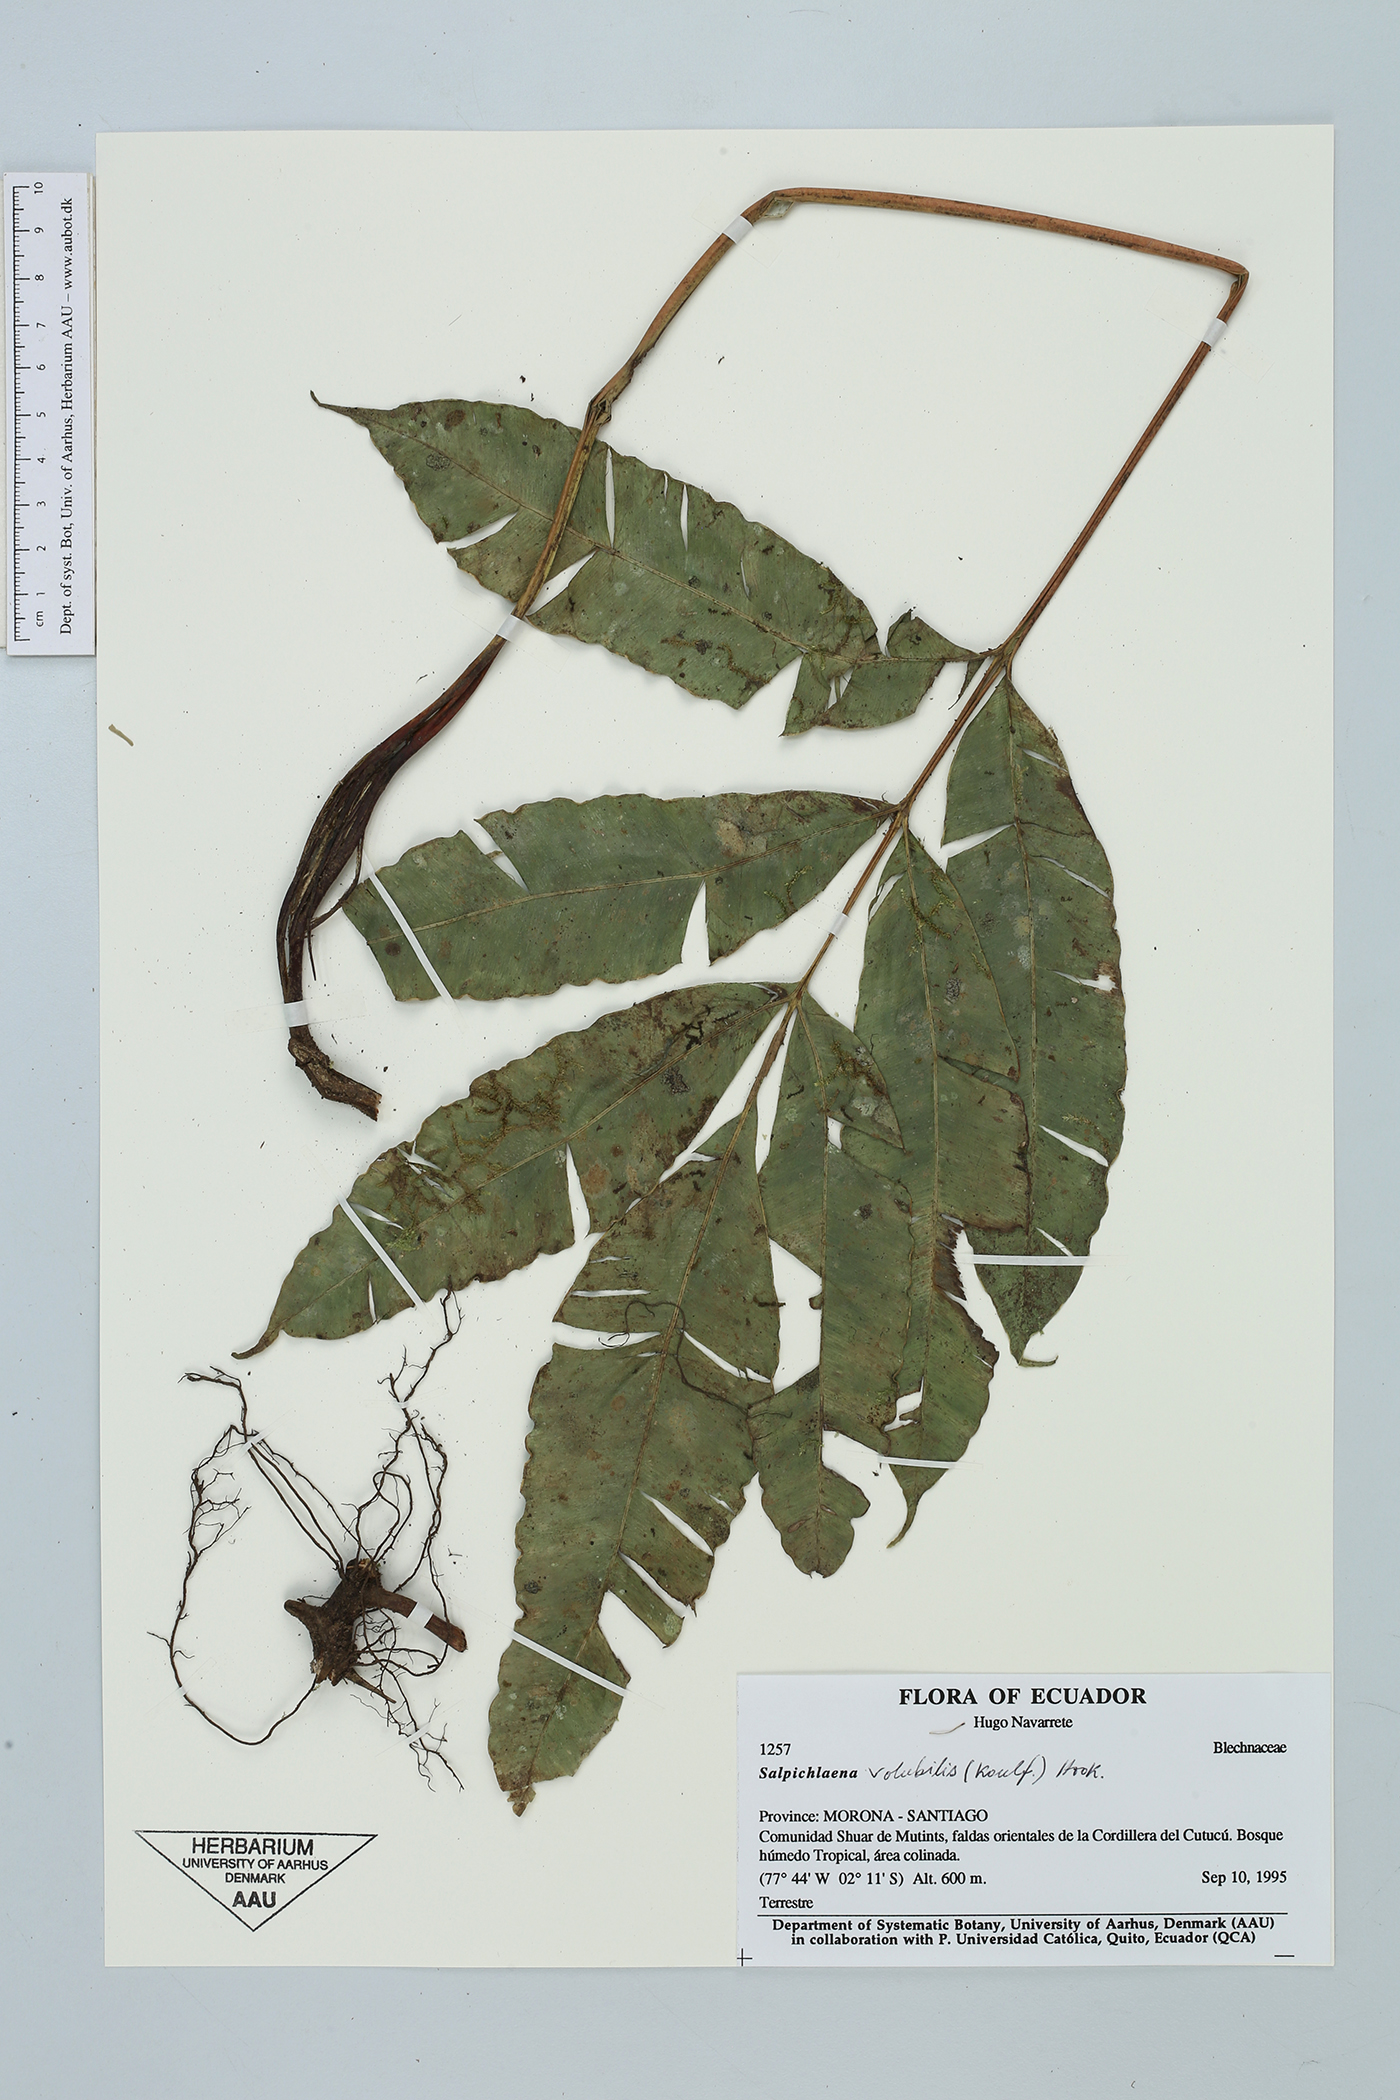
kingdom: Plantae
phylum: Tracheophyta
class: Polypodiopsida
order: Polypodiales
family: Blechnaceae
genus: Salpichlaena
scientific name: Salpichlaena volubilis
